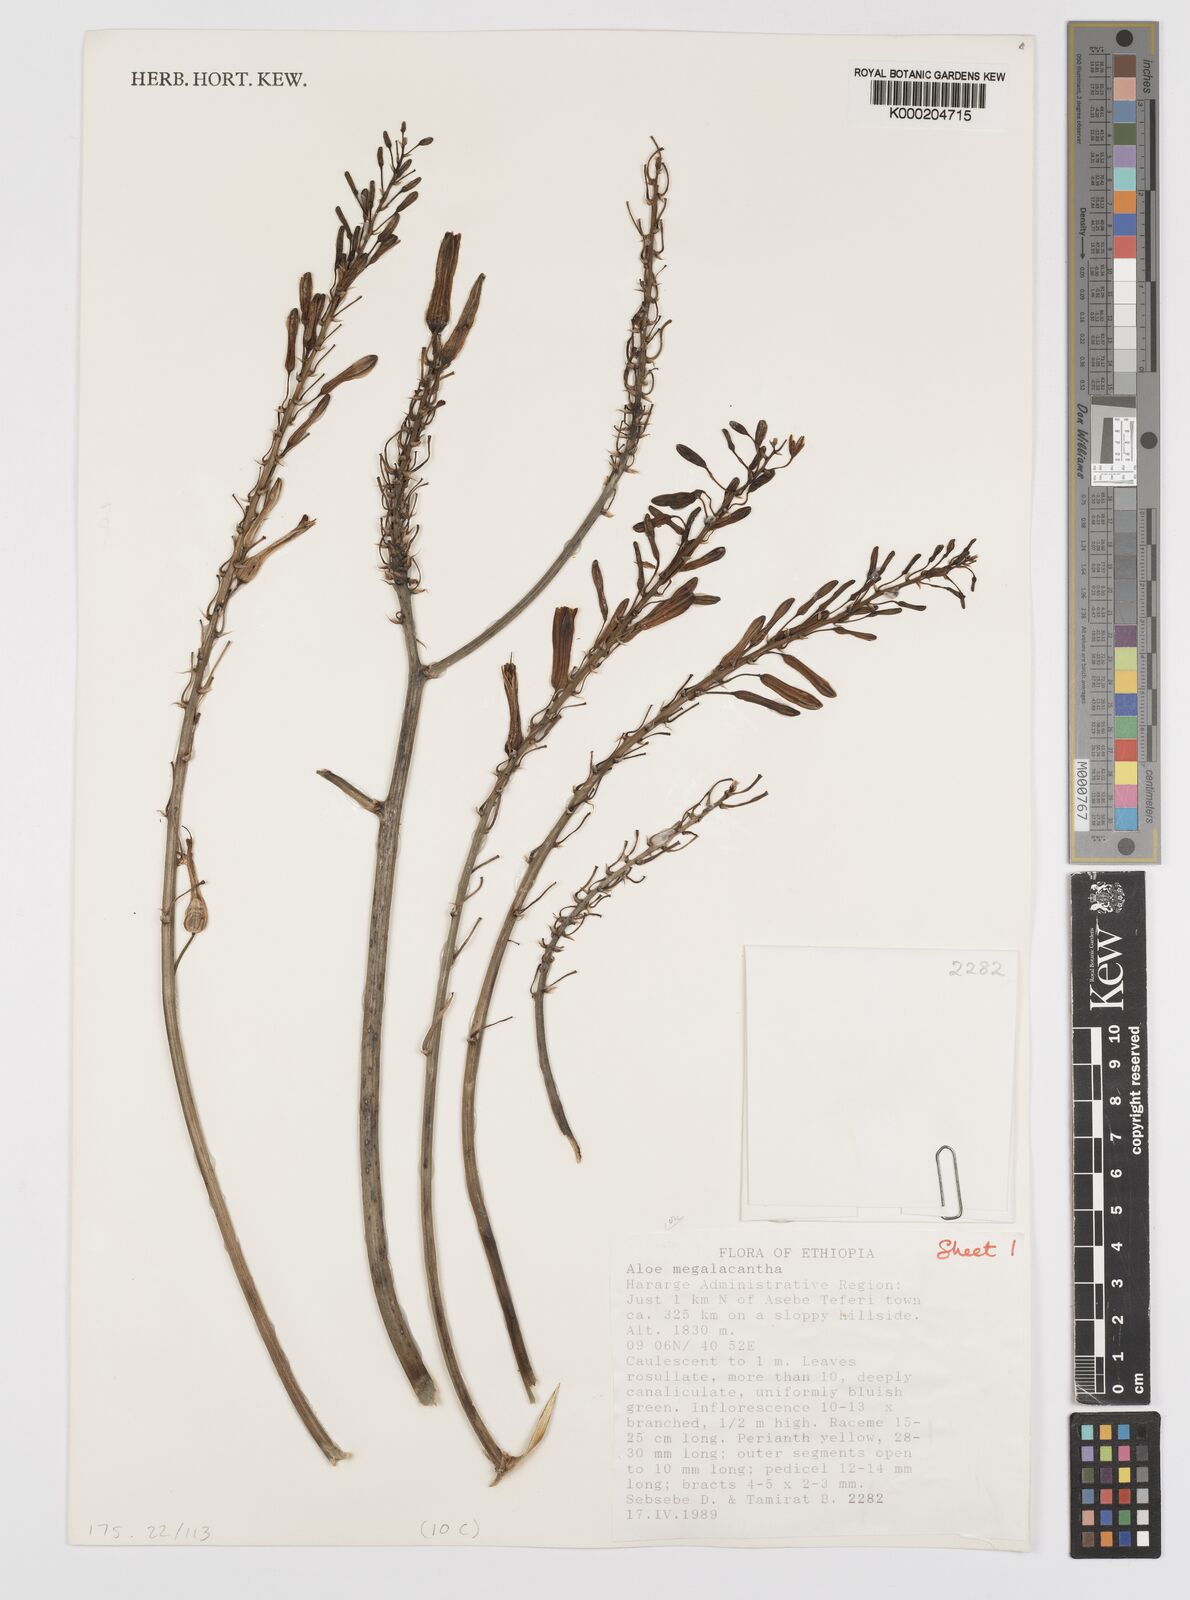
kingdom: Plantae
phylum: Tracheophyta
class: Liliopsida
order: Asparagales
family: Asphodelaceae
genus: Aloe
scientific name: Aloe megalacantha
